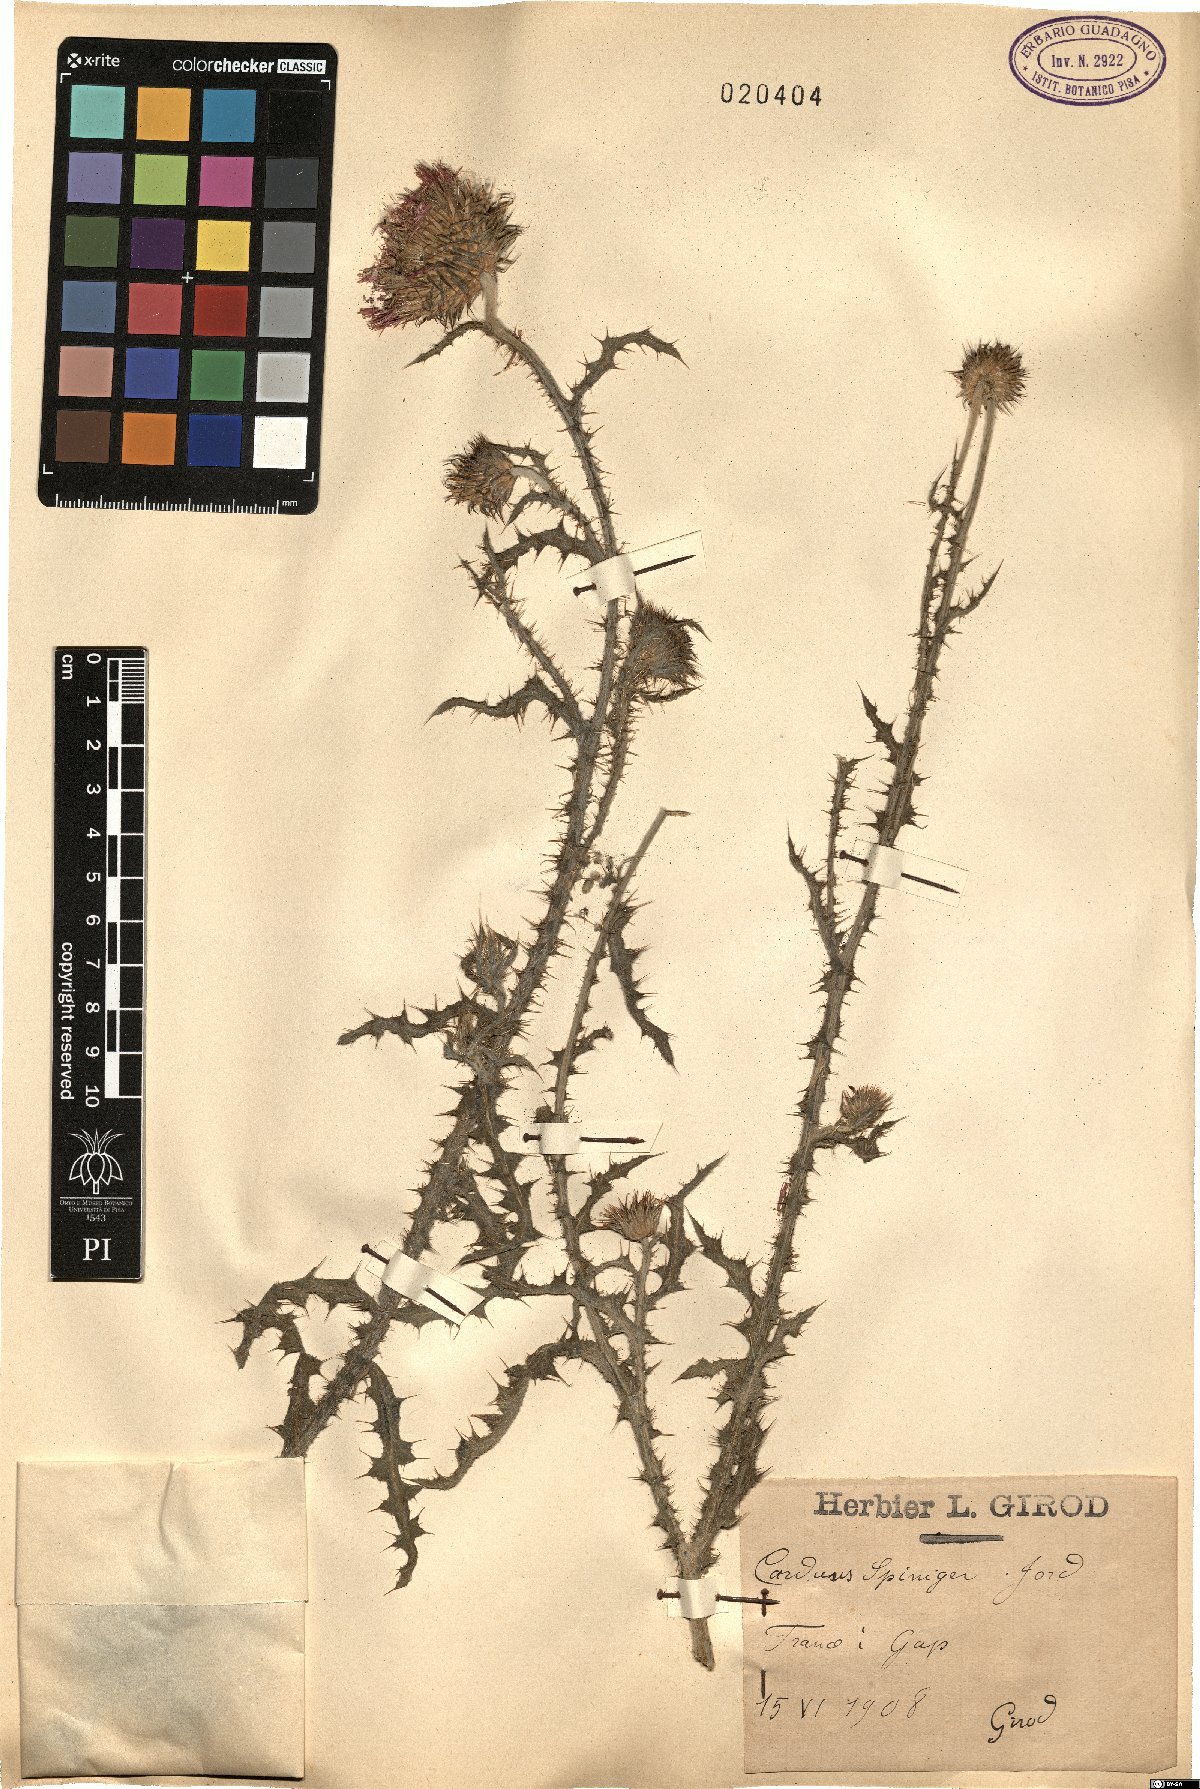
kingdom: Plantae
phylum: Tracheophyta
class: Magnoliopsida
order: Asterales
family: Asteraceae
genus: Carduus
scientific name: Carduus hamulosus
